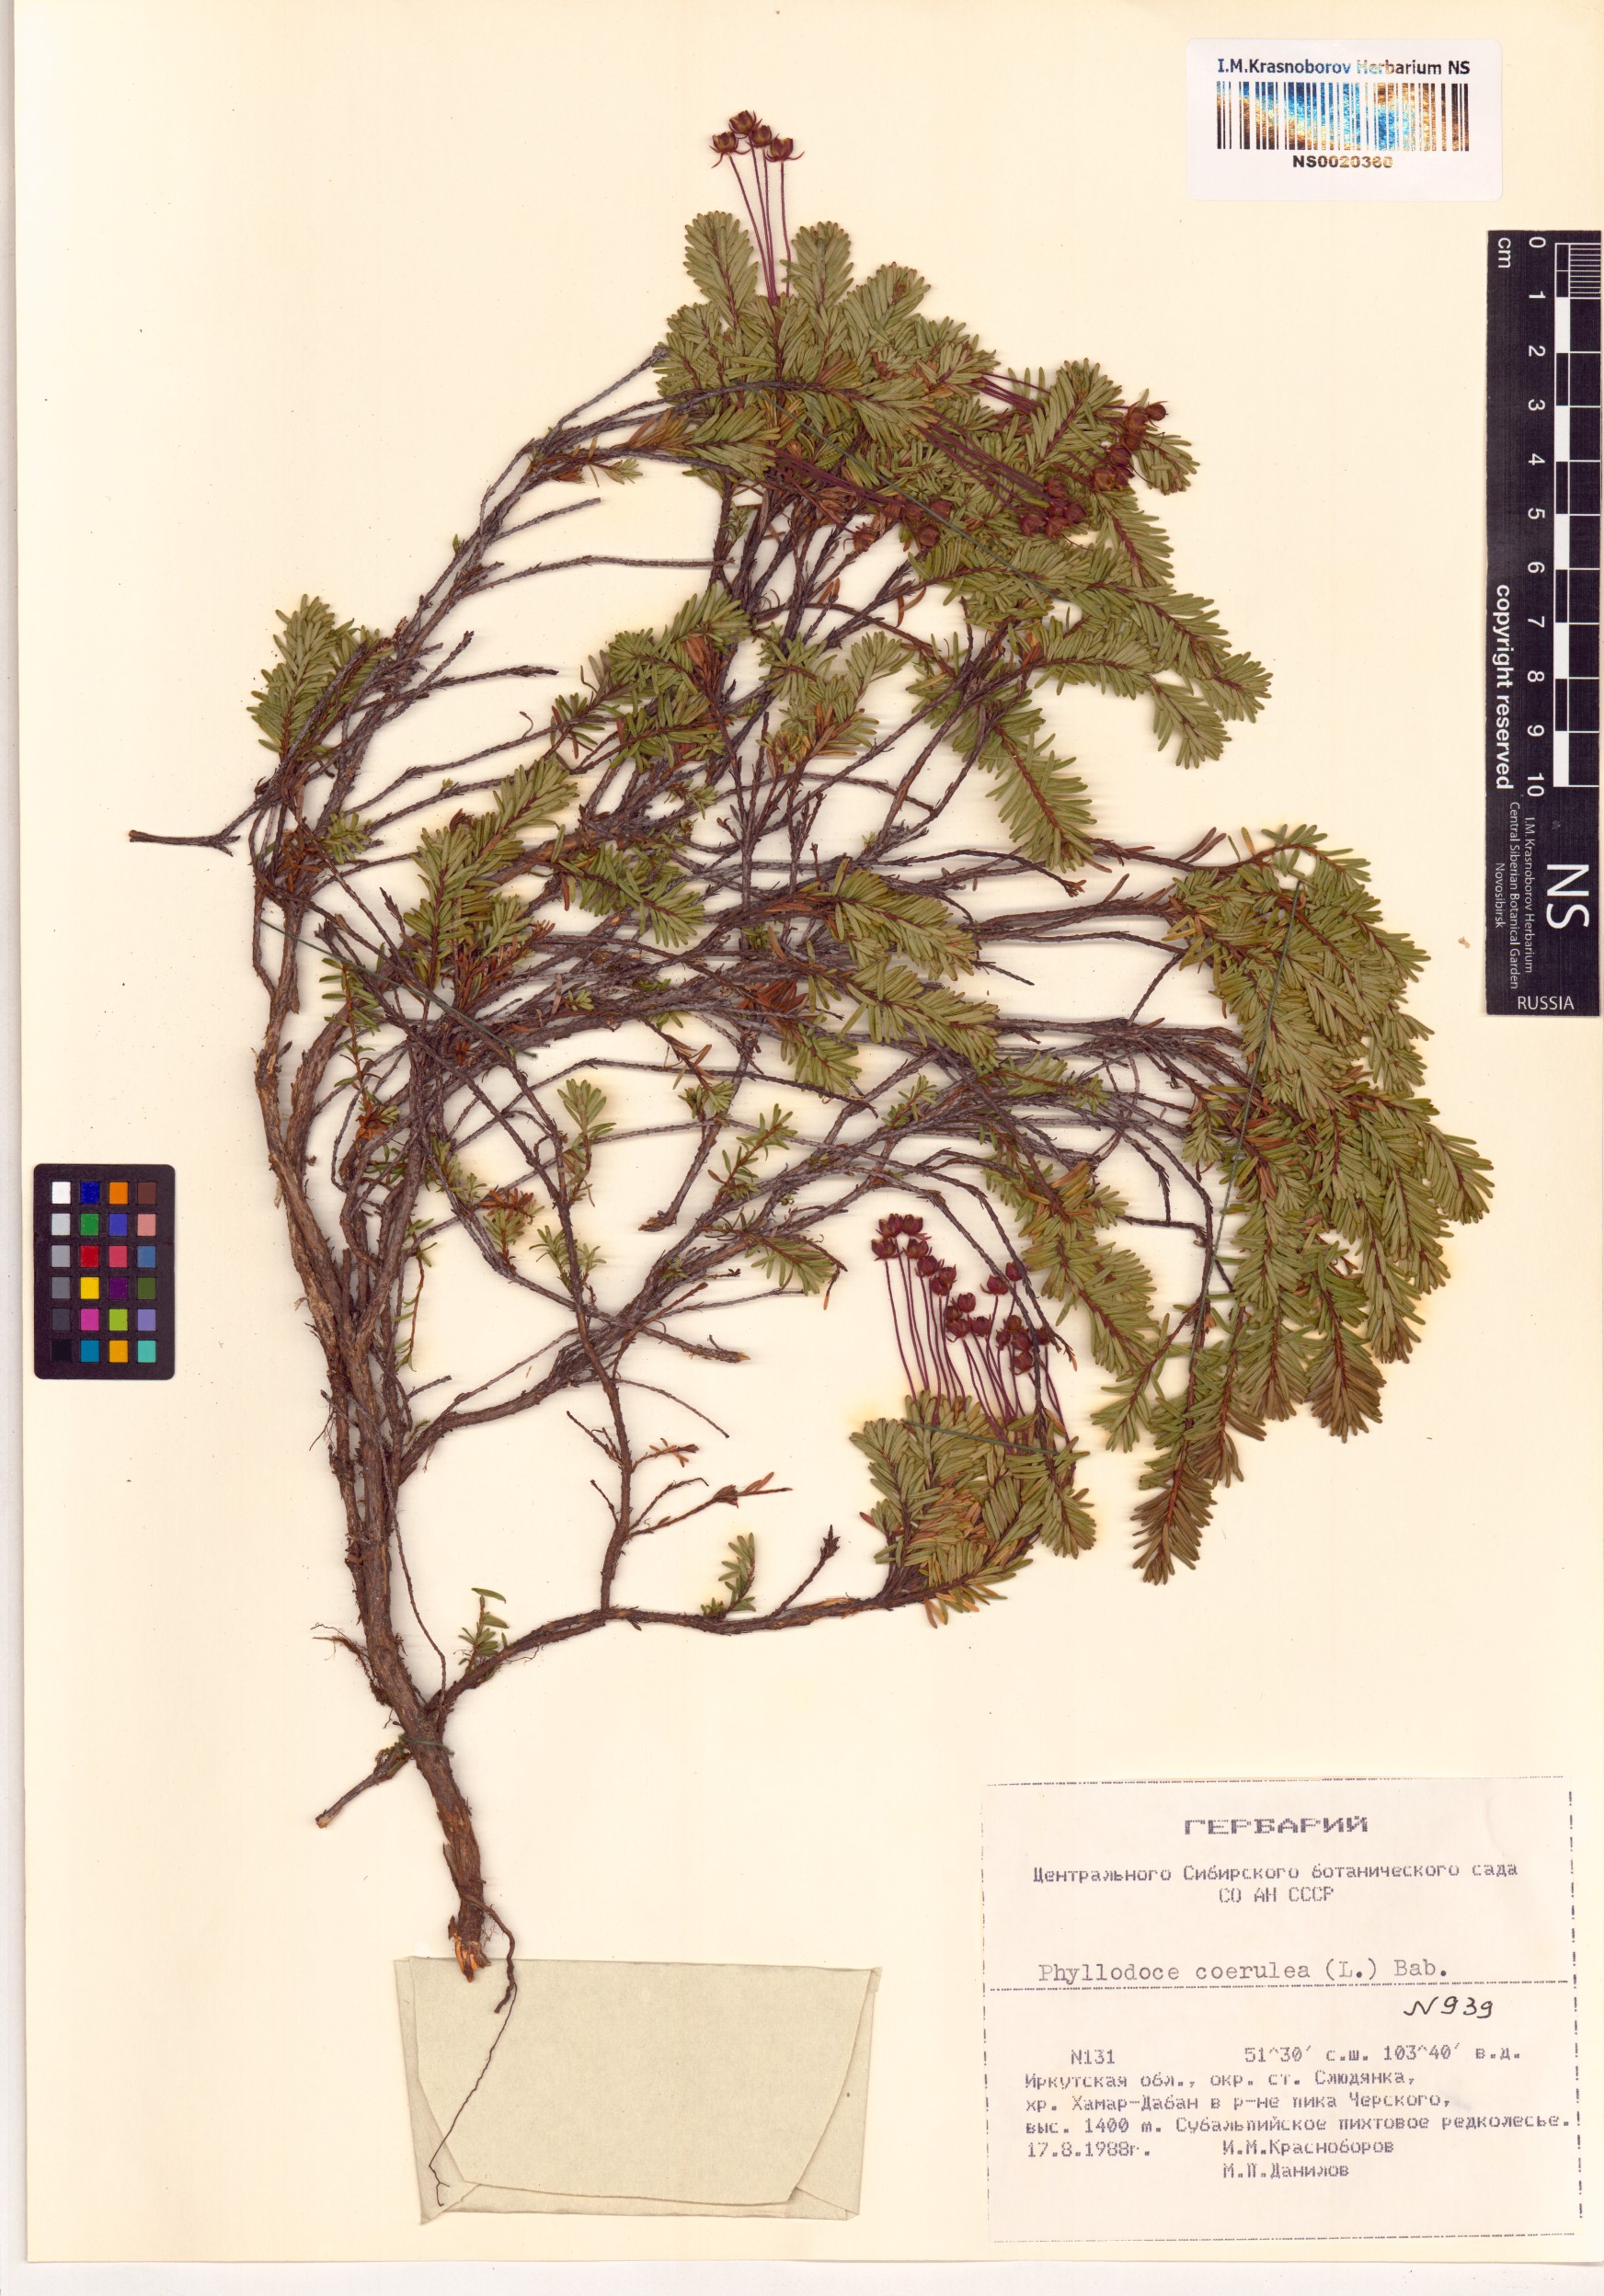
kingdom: Plantae
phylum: Tracheophyta
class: Magnoliopsida
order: Ericales
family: Ericaceae
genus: Phyllodoce
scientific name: Phyllodoce caerulea
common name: Blue heath
